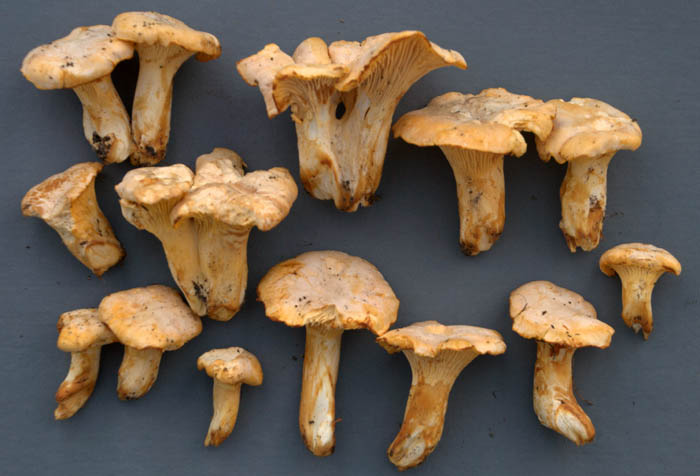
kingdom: Fungi
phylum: Basidiomycota
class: Agaricomycetes
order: Cantharellales
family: Hydnaceae
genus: Cantharellus
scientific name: Cantharellus pallens
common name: bleg kantarel
